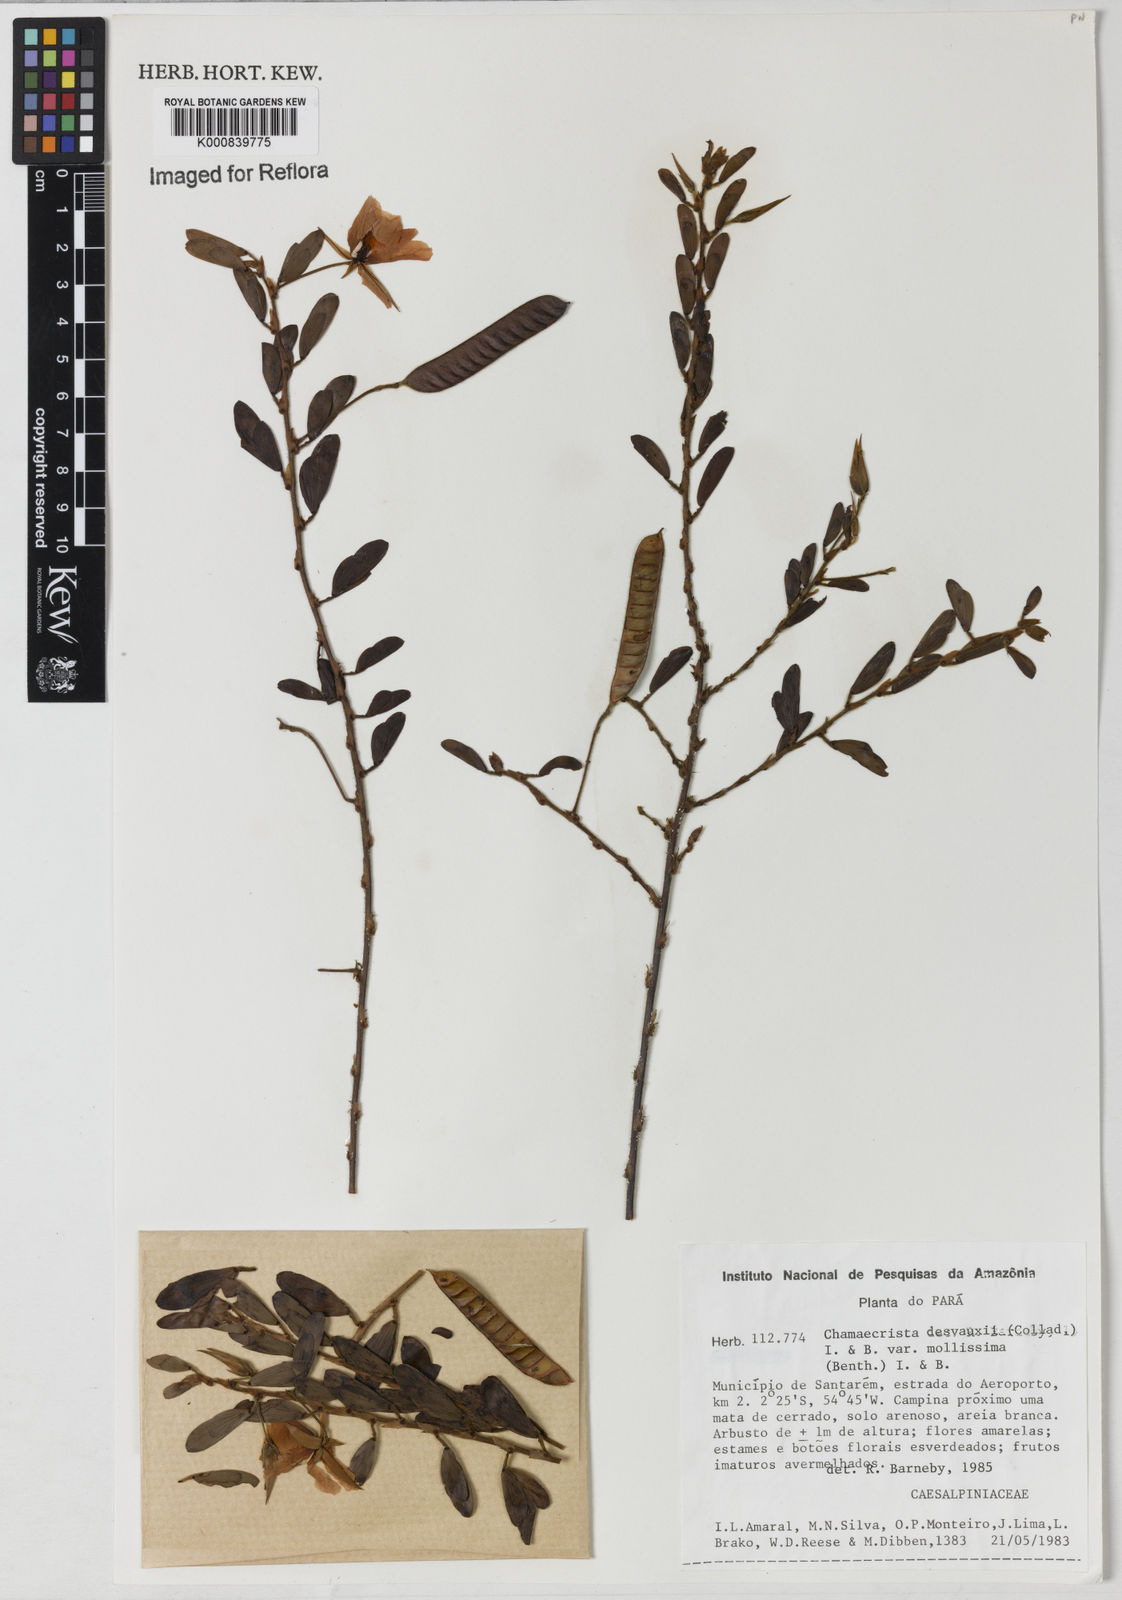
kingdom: Plantae
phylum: Tracheophyta
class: Magnoliopsida
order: Fabales
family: Fabaceae
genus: Chamaecrista
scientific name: Chamaecrista desvauxii
